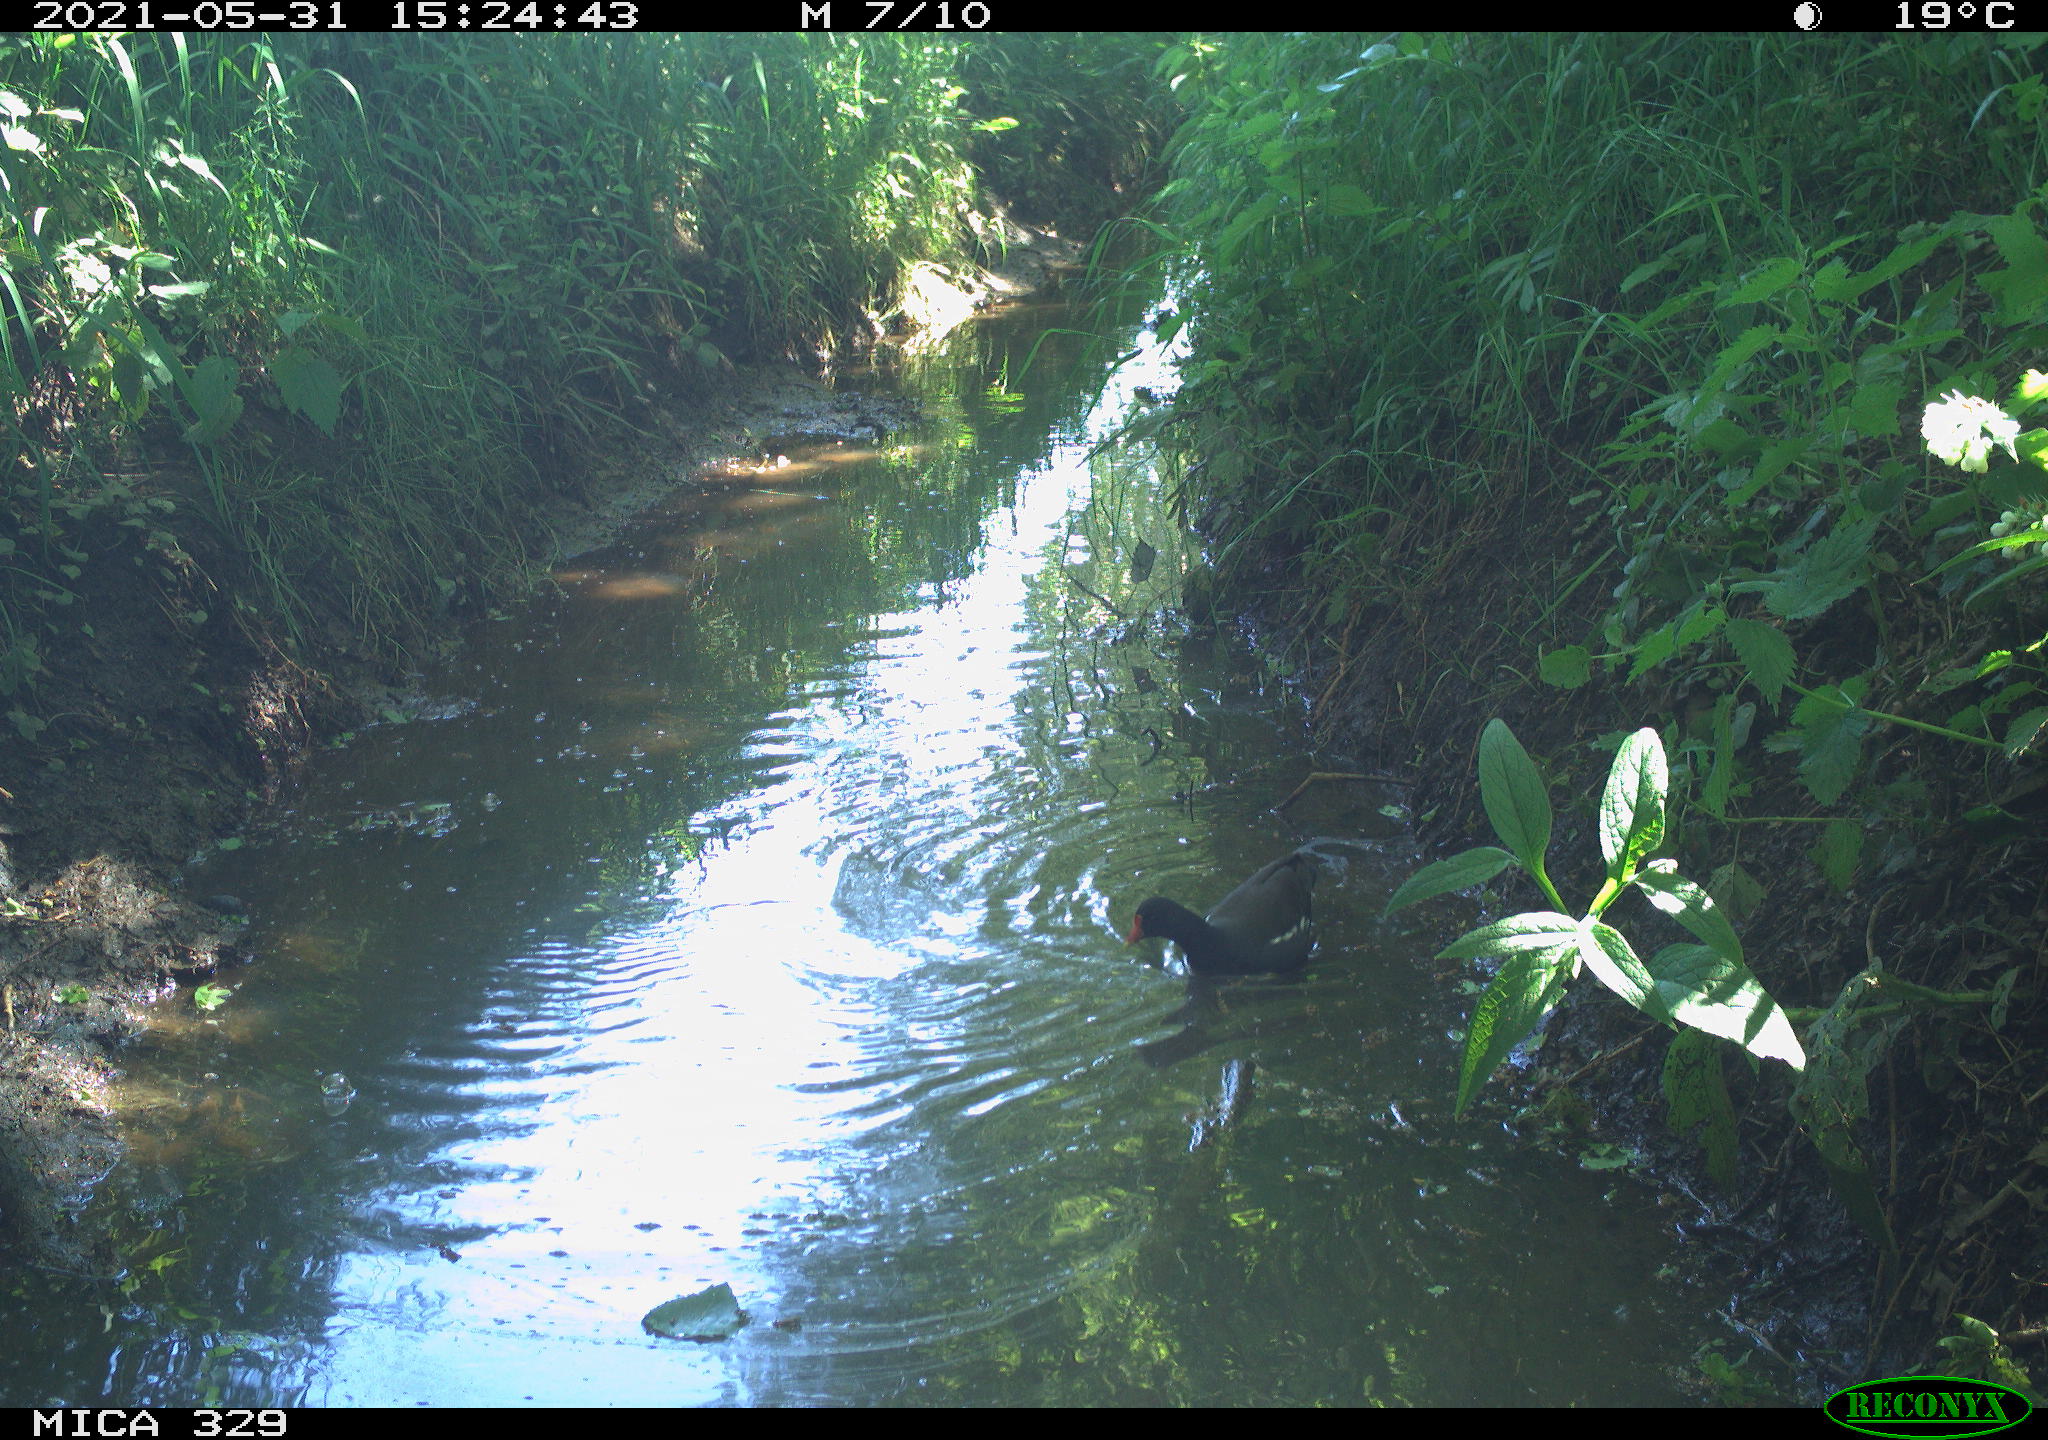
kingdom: Animalia
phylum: Chordata
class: Aves
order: Gruiformes
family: Rallidae
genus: Gallinula
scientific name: Gallinula chloropus
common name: Common moorhen
